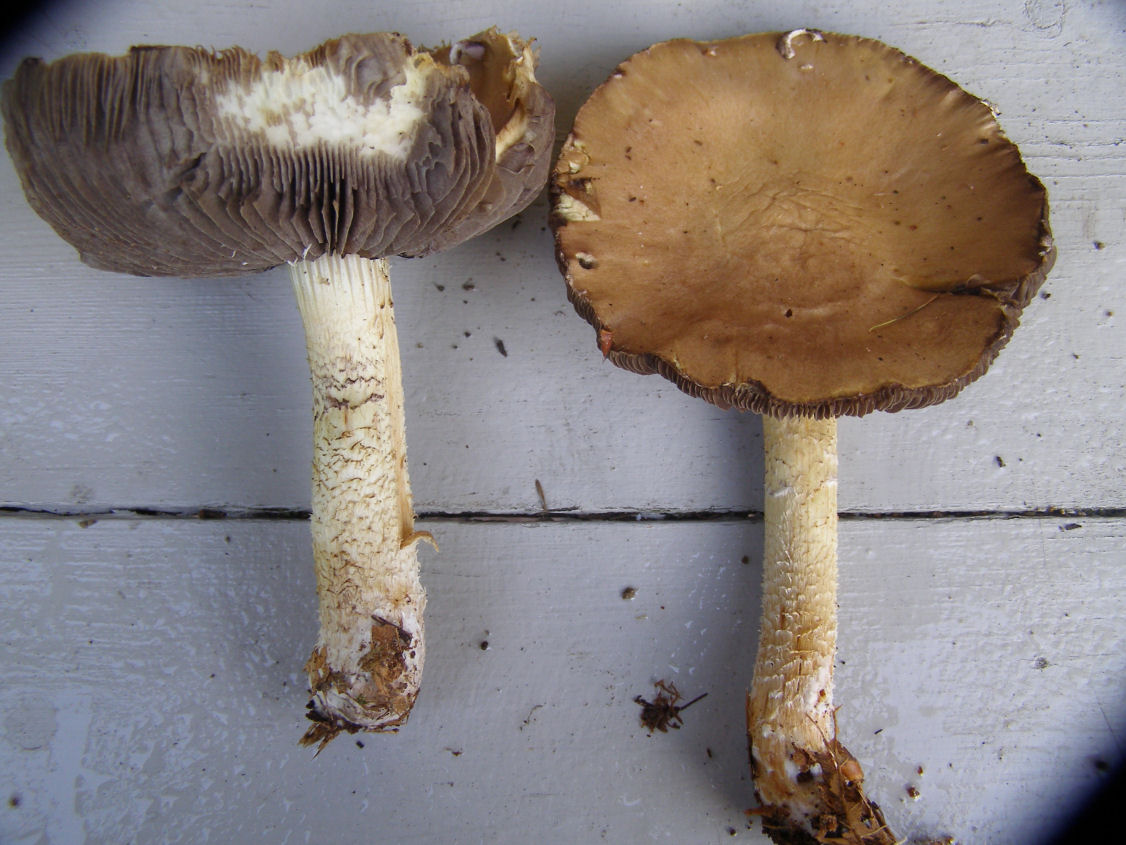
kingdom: Fungi
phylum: Basidiomycota
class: Agaricomycetes
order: Agaricales
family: Strophariaceae
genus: Stropharia
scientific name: Stropharia hornemannii
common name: nordisk bredblad
